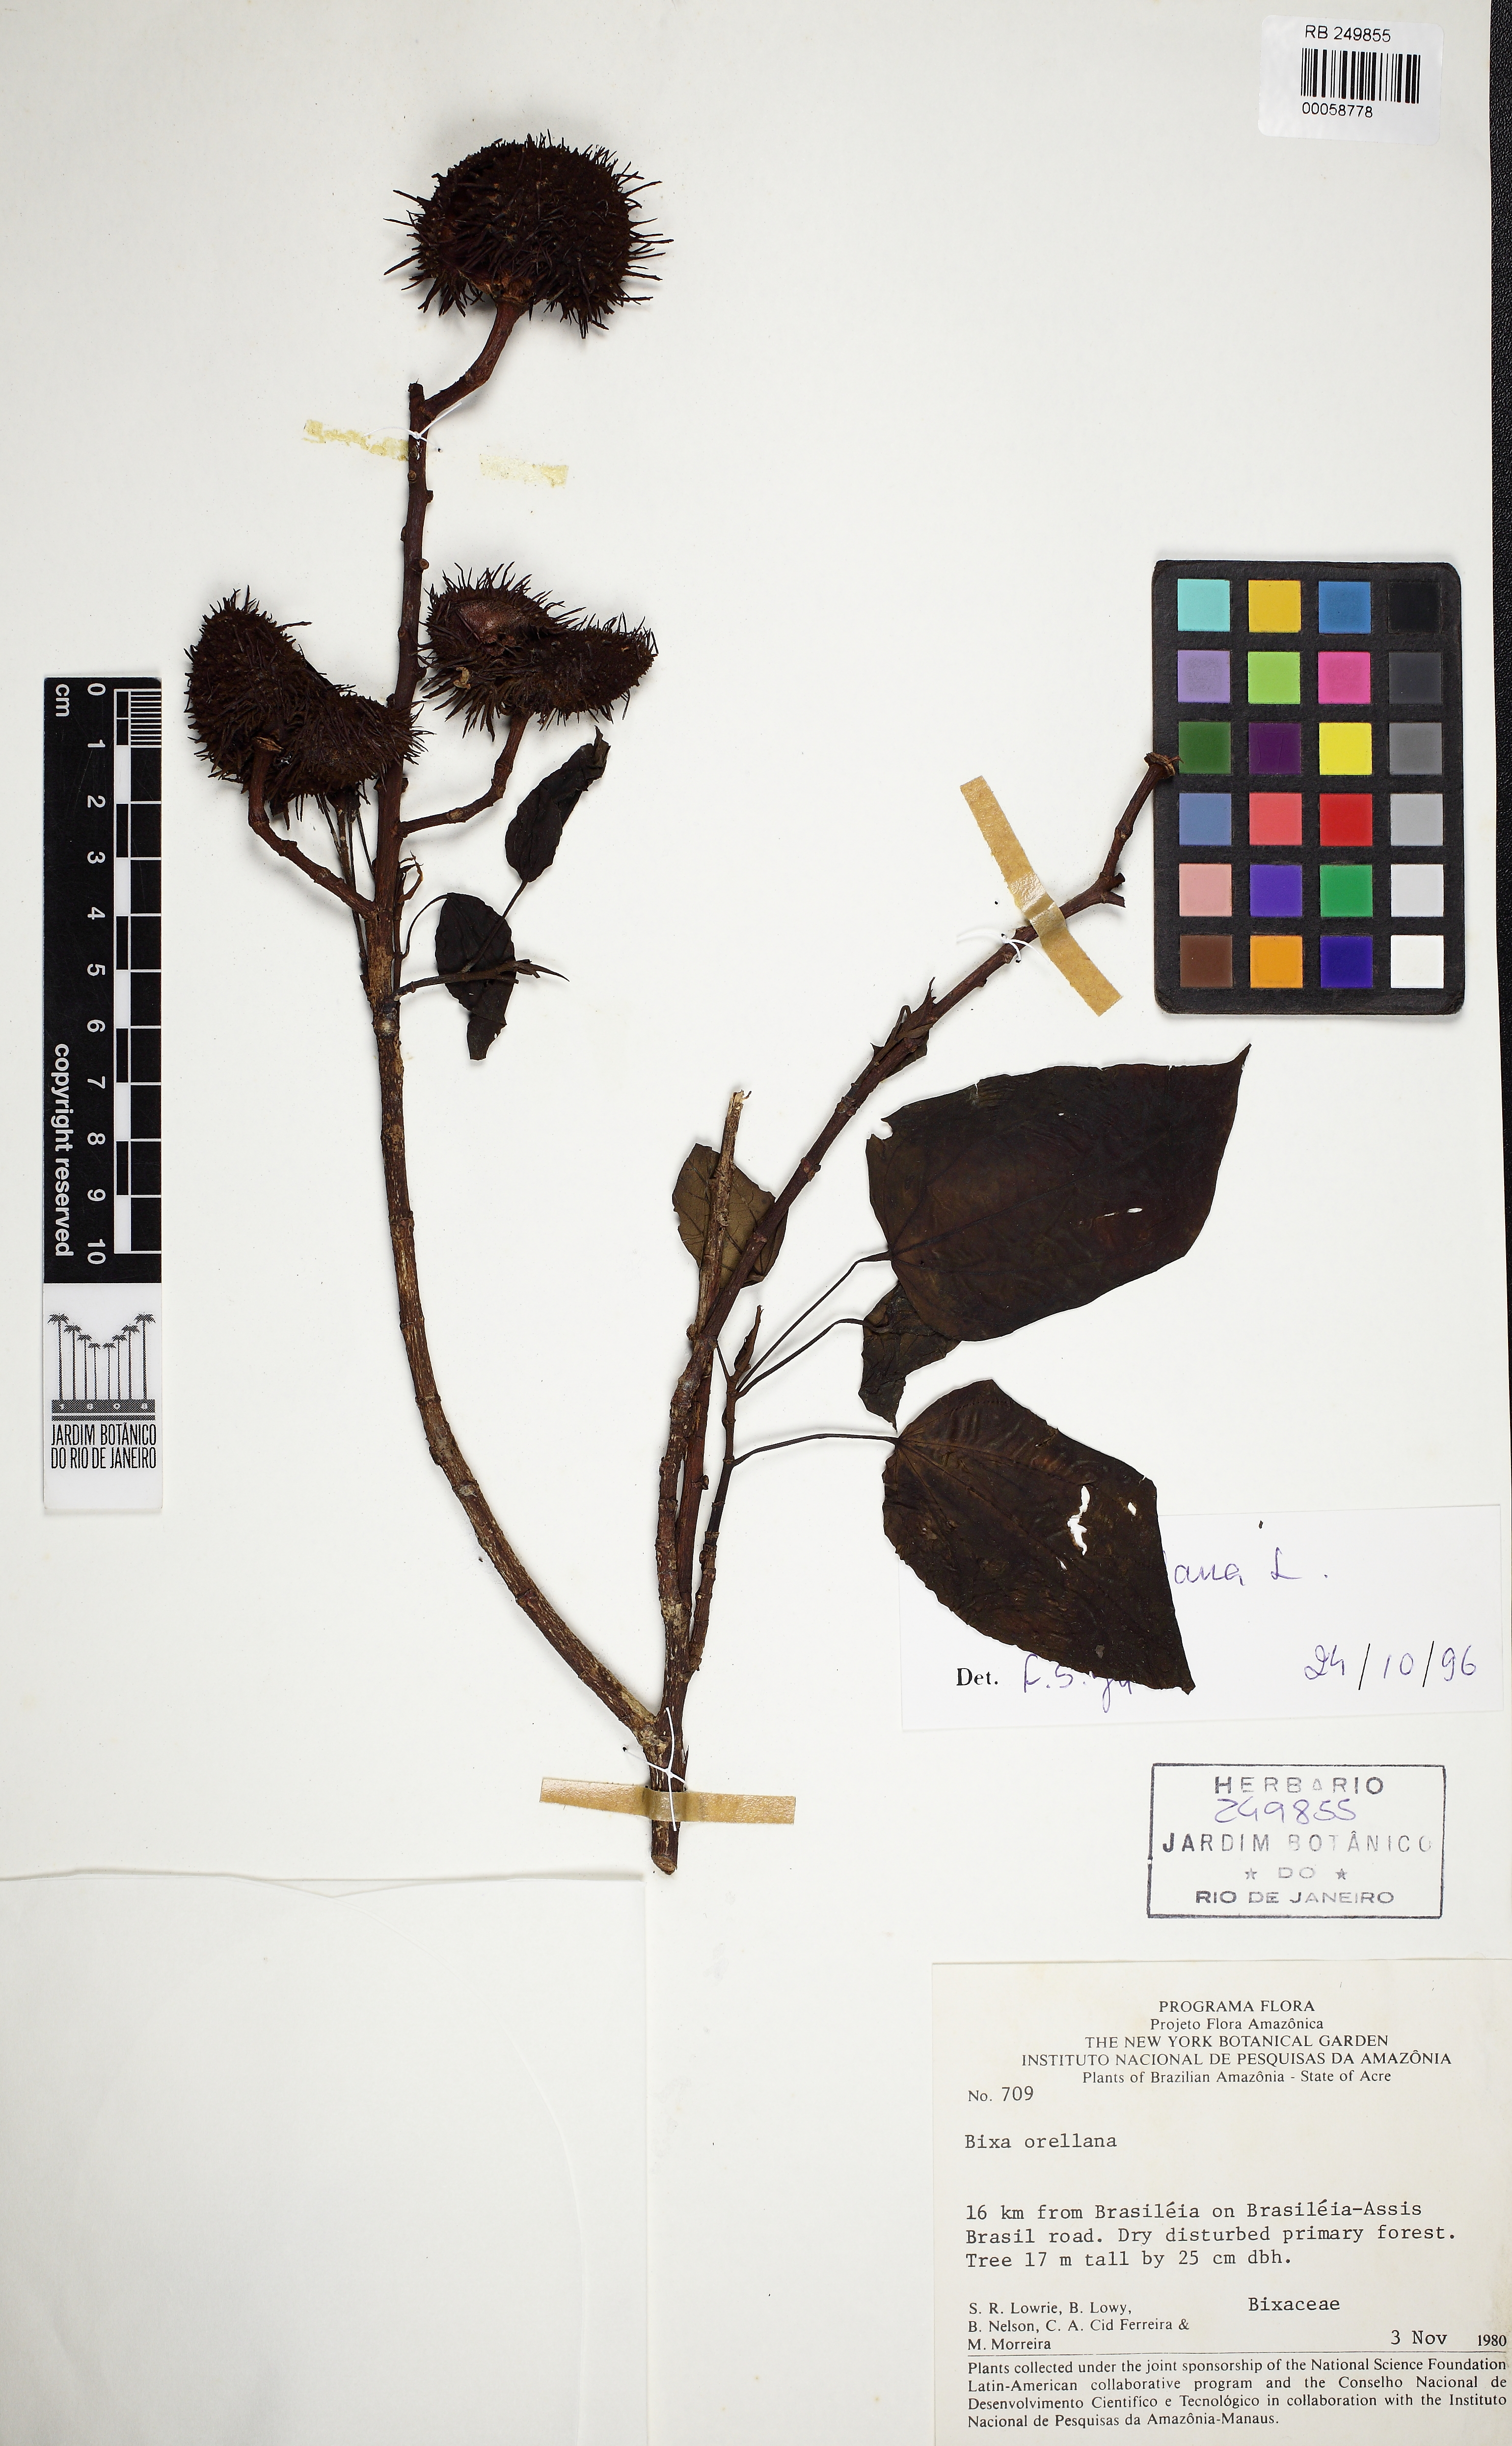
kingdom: Plantae
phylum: Tracheophyta
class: Magnoliopsida
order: Malvales
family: Bixaceae
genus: Bixa
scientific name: Bixa orellana
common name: Lipsticktree
